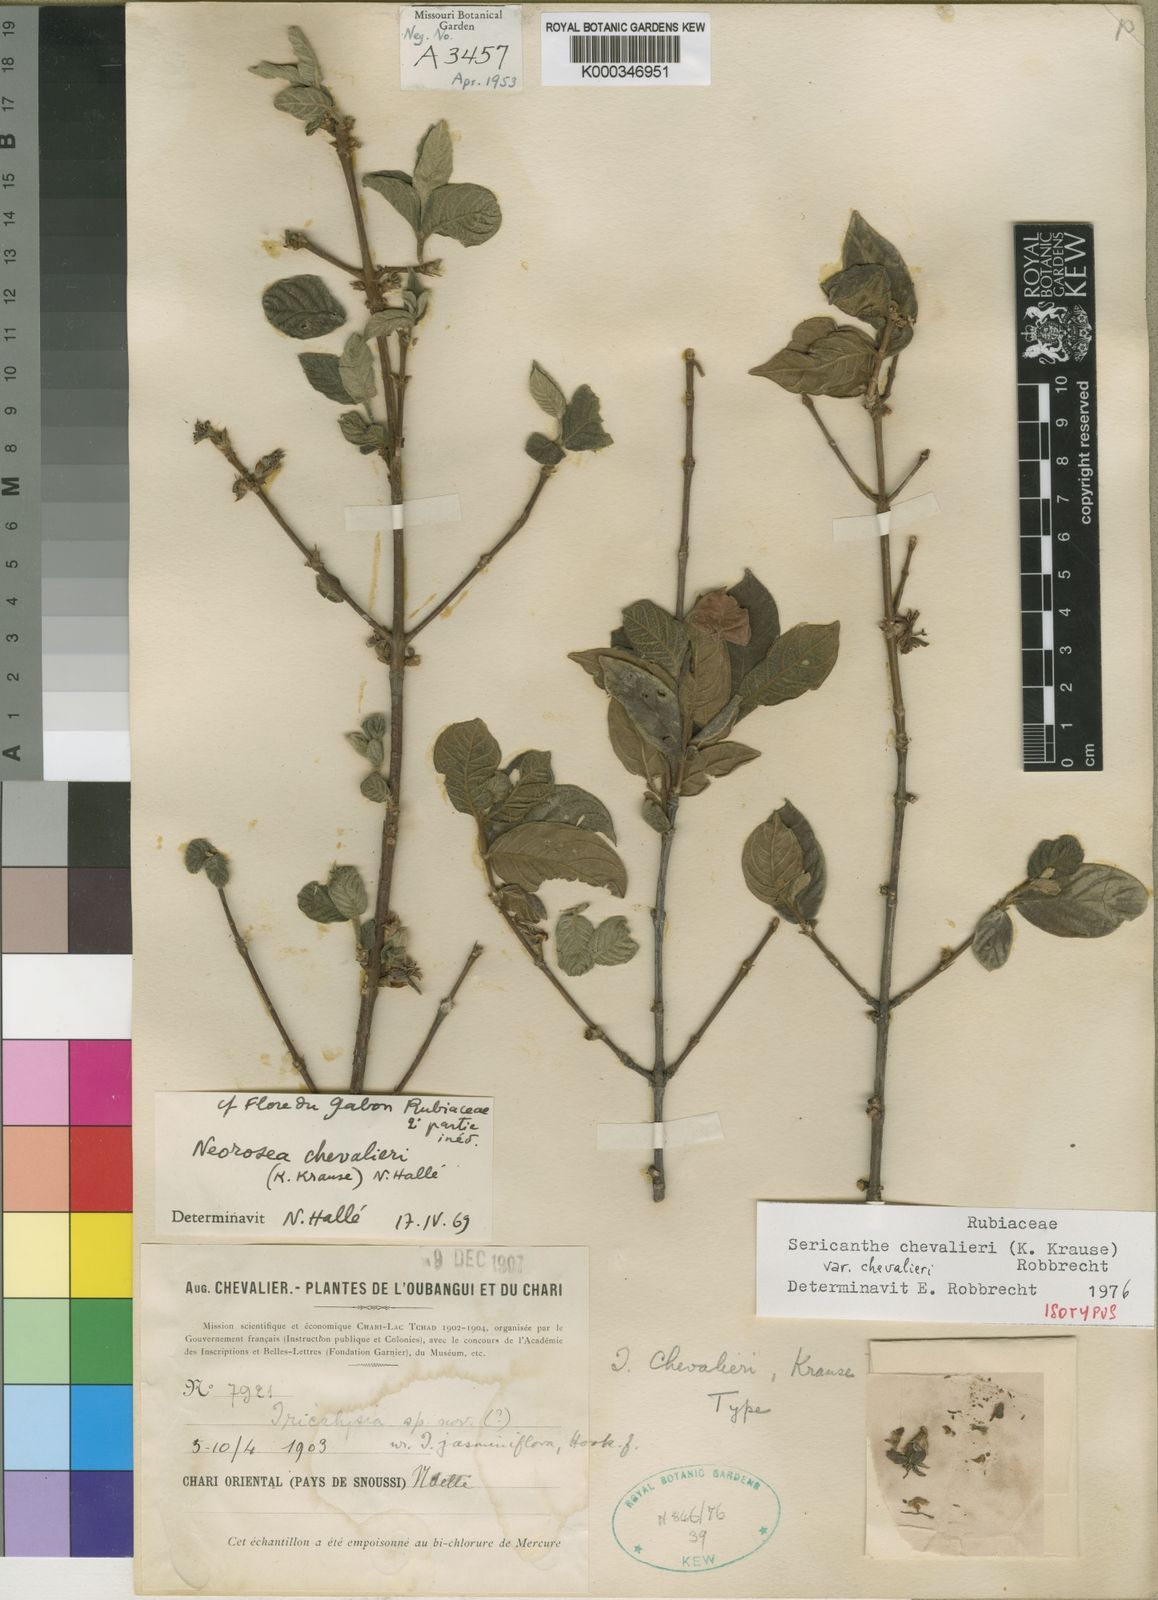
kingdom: Plantae
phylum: Tracheophyta
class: Magnoliopsida
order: Gentianales
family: Rubiaceae
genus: Sericanthe
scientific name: Sericanthe chevalieri
